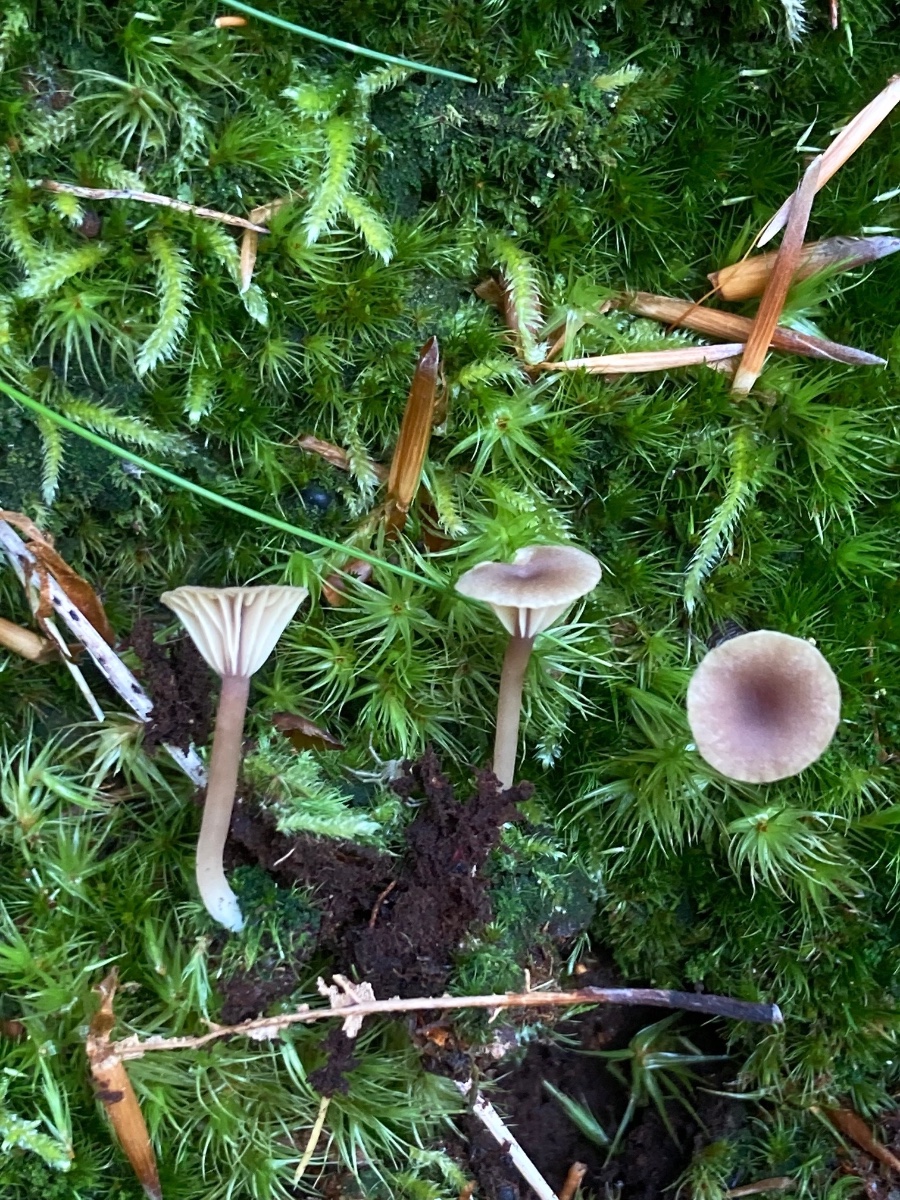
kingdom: Fungi
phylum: Basidiomycota
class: Agaricomycetes
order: Agaricales
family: Hygrophoraceae
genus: Lichenomphalia
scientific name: Lichenomphalia umbellifera
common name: tørve-lavhat
